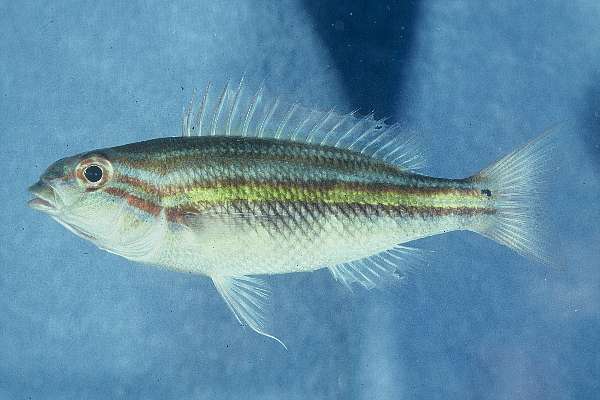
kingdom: Animalia
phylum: Chordata
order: Perciformes
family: Nemipteridae
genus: Scaevius
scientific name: Scaevius milii
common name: Coral monocle bream
